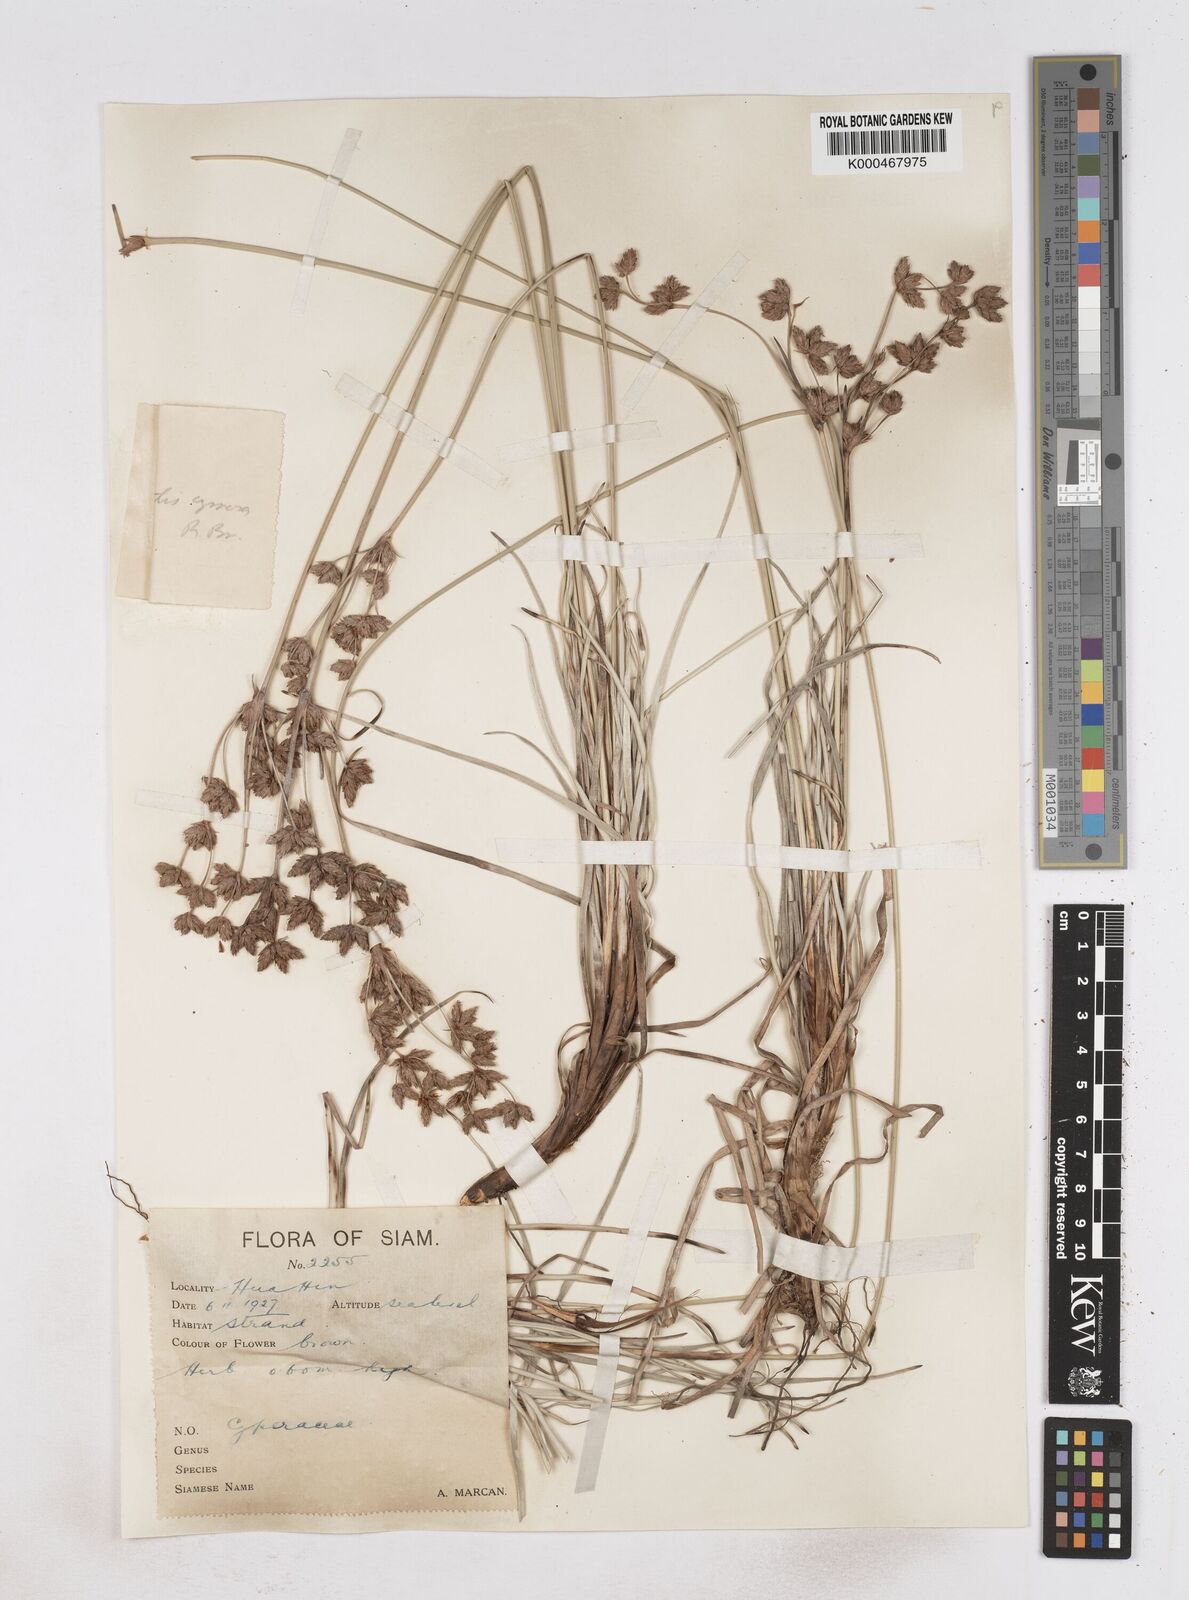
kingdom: Plantae
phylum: Tracheophyta
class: Liliopsida
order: Poales
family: Cyperaceae
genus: Fimbristylis
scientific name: Fimbristylis sericea
